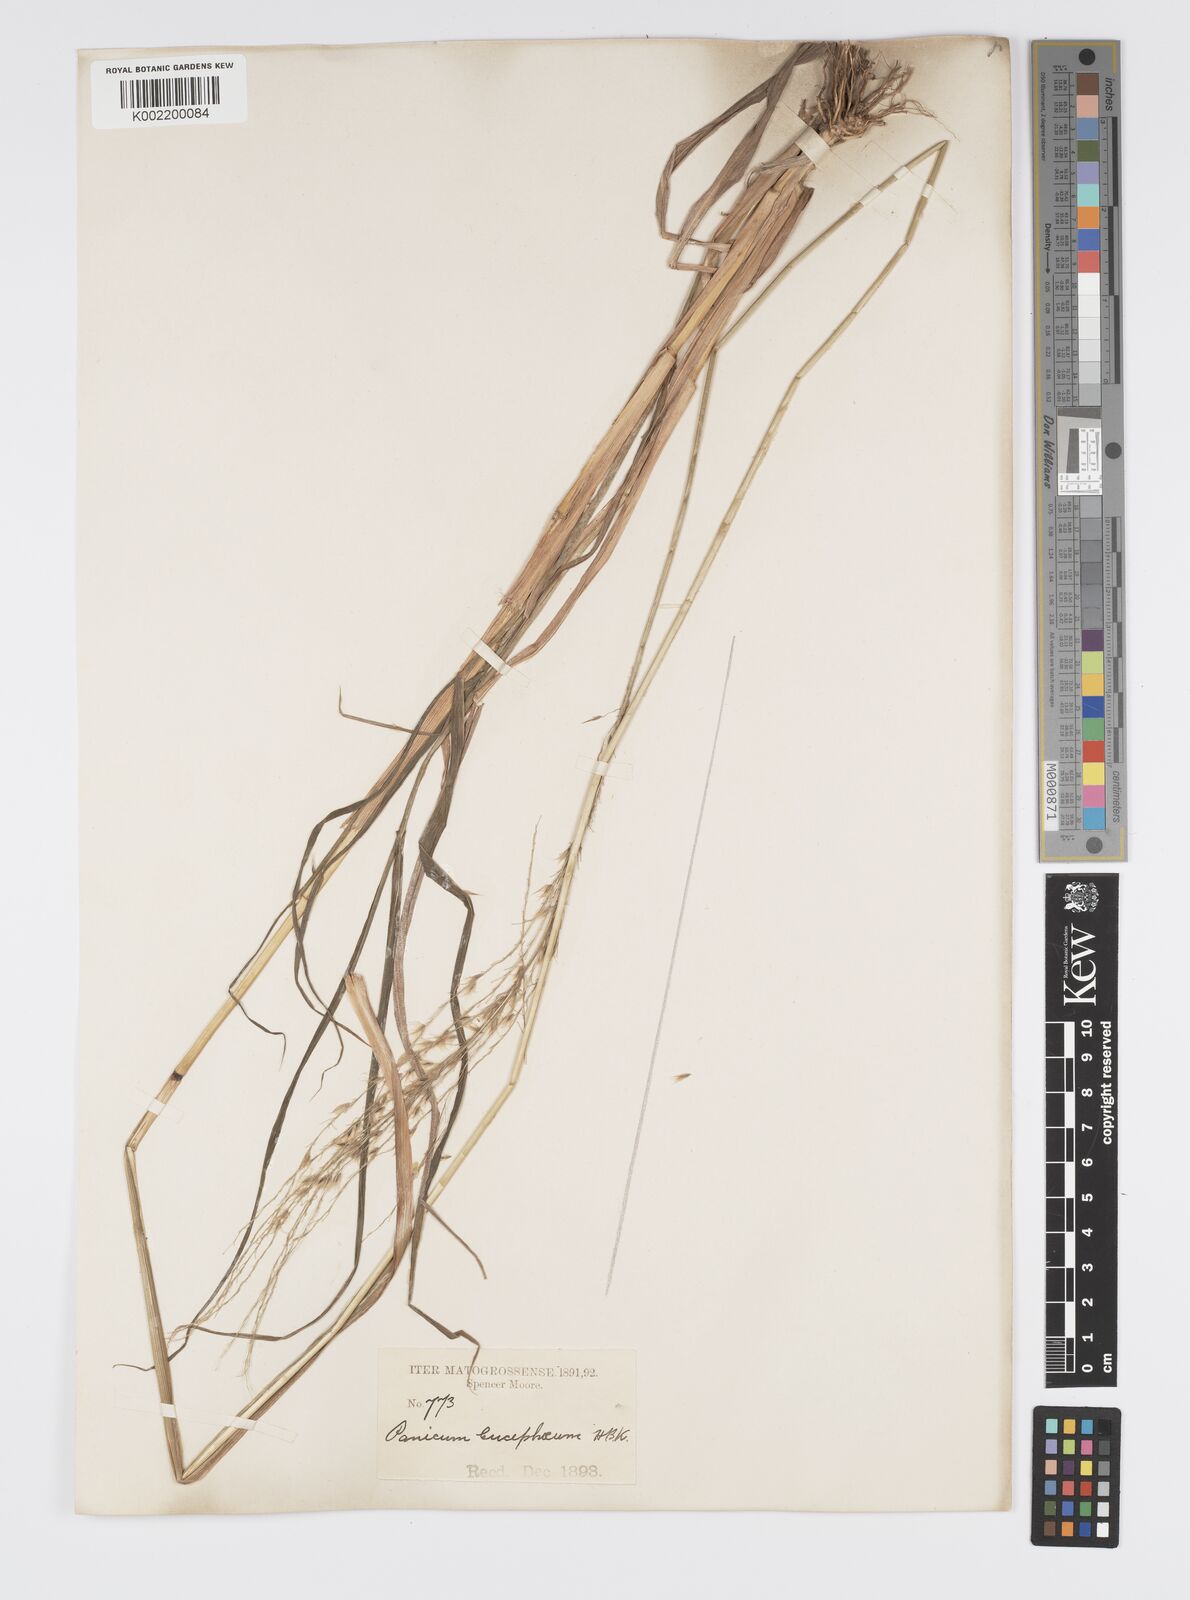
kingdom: Plantae
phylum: Tracheophyta
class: Liliopsida
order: Poales
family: Poaceae
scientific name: Poaceae
